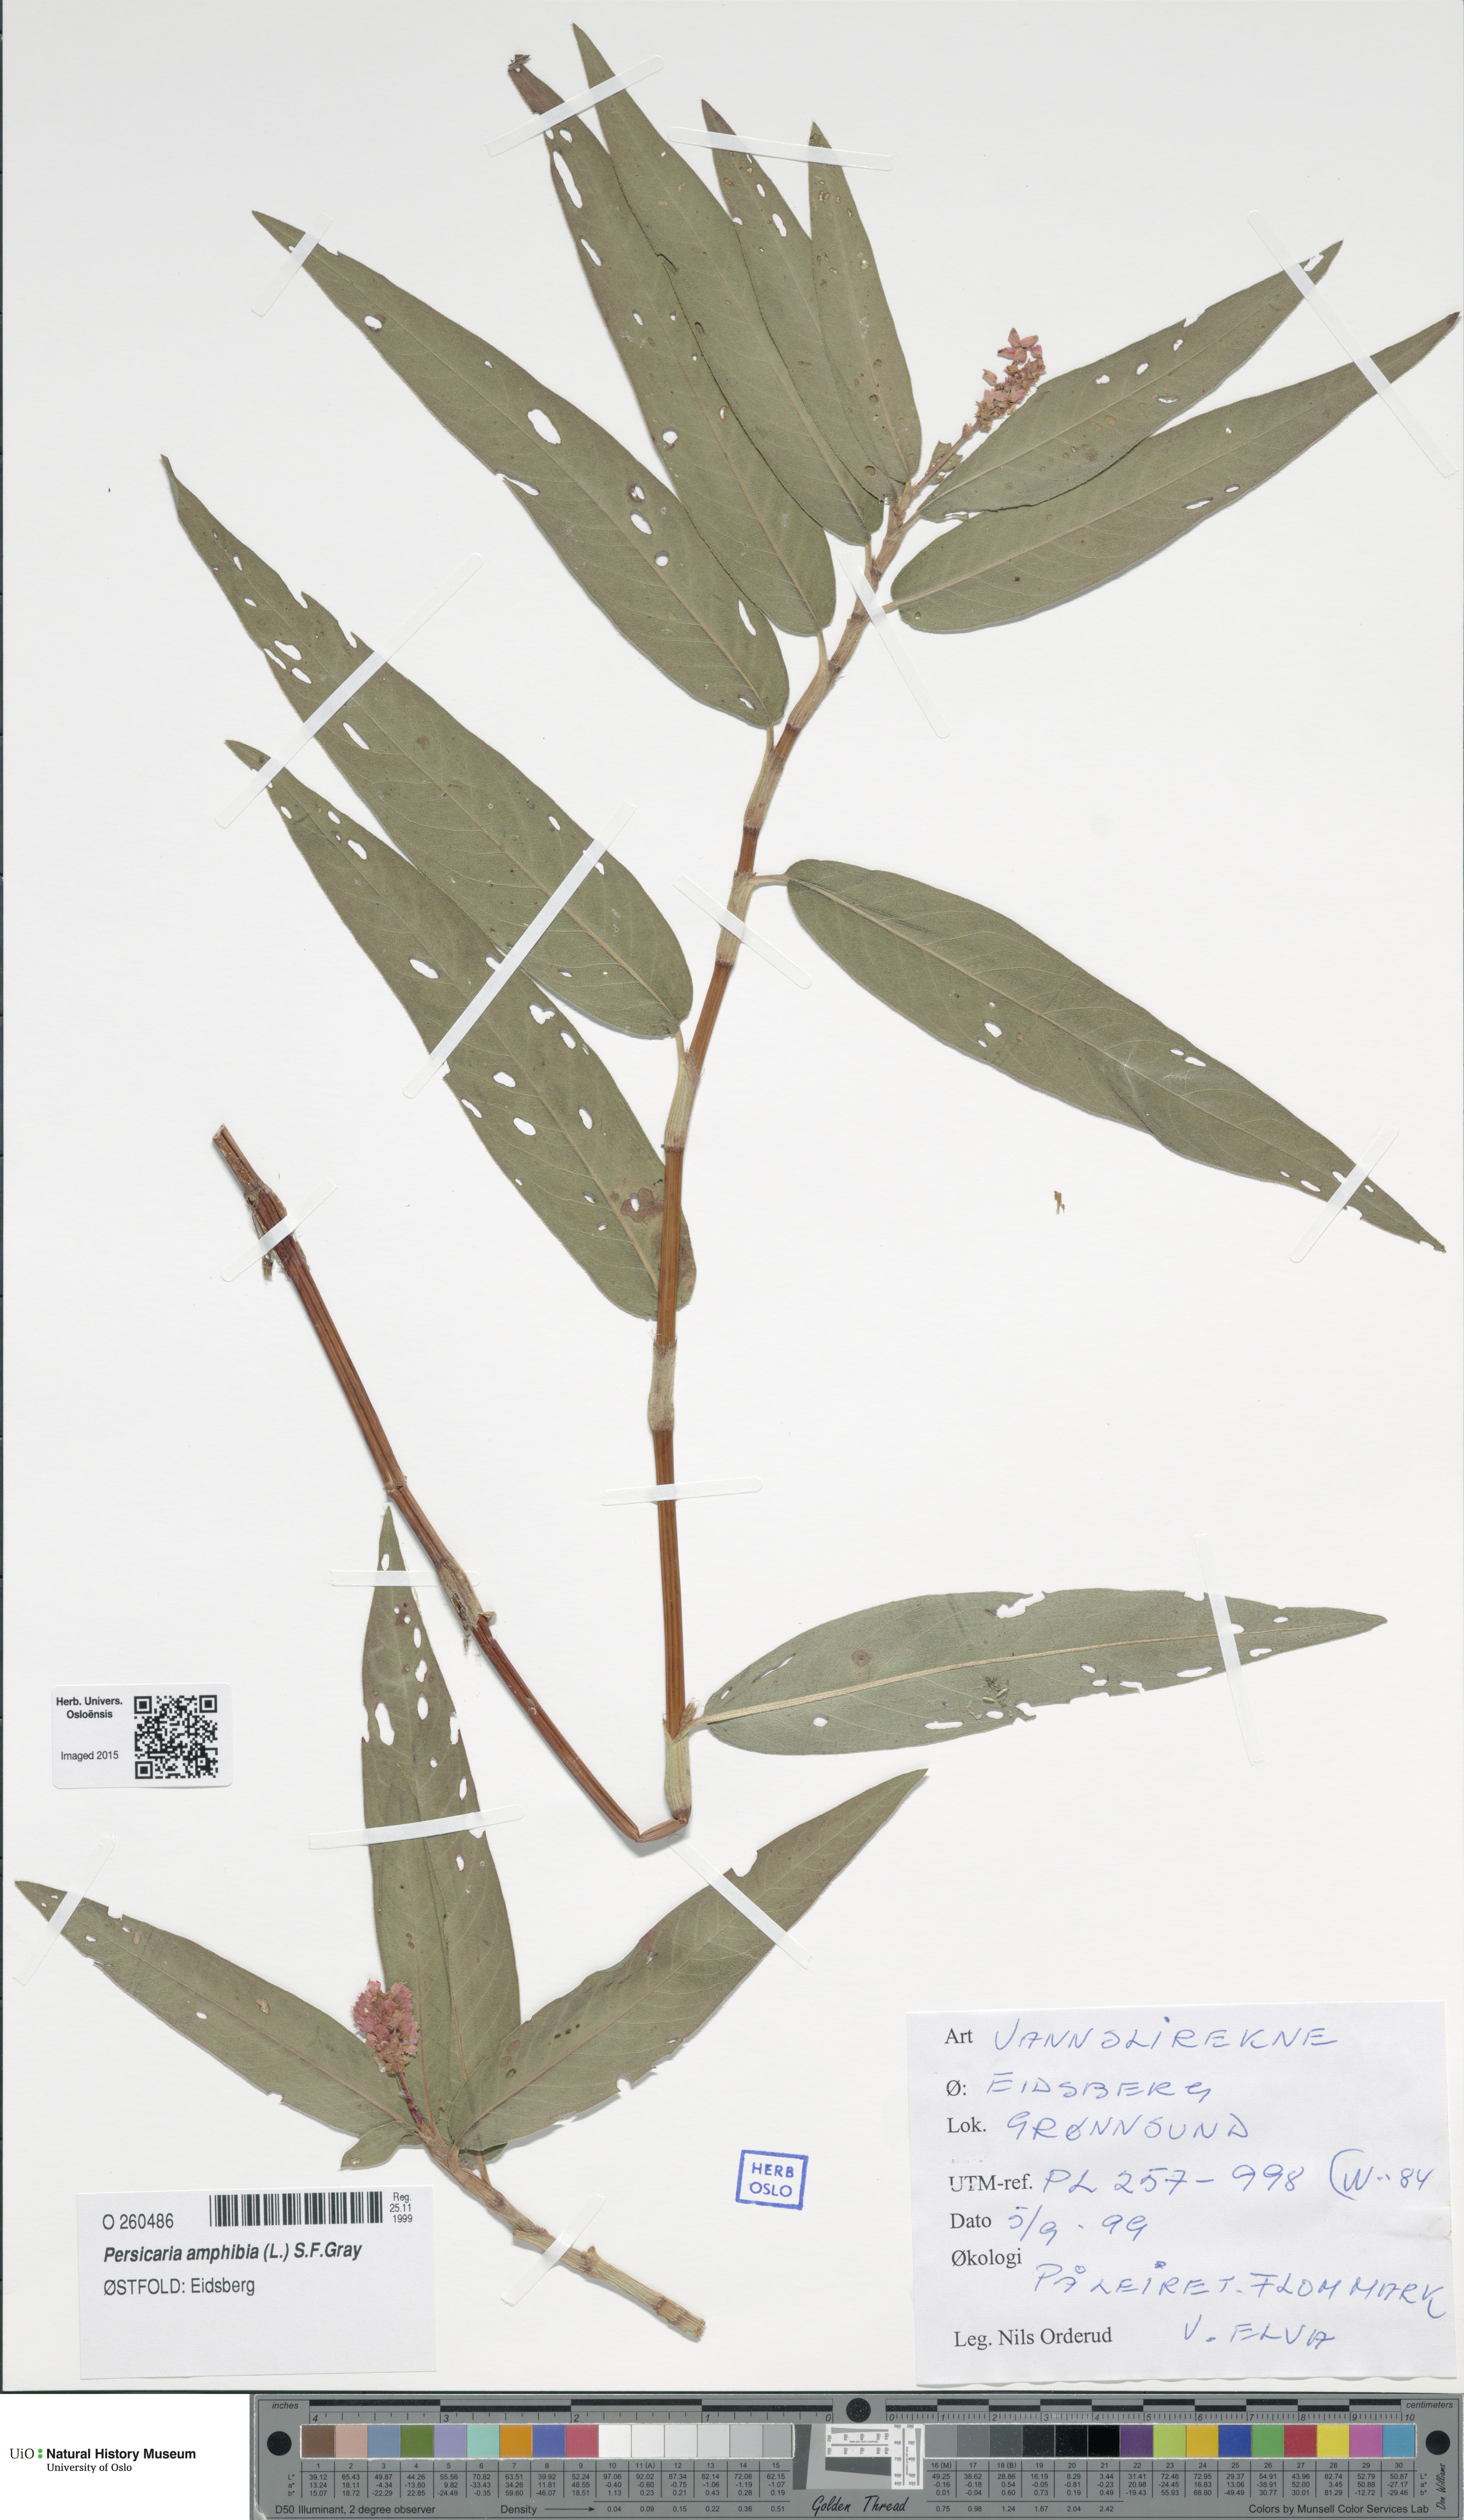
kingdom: Plantae
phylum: Tracheophyta
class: Magnoliopsida
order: Caryophyllales
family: Polygonaceae
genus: Persicaria
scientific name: Persicaria amphibia
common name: Amphibious bistort
